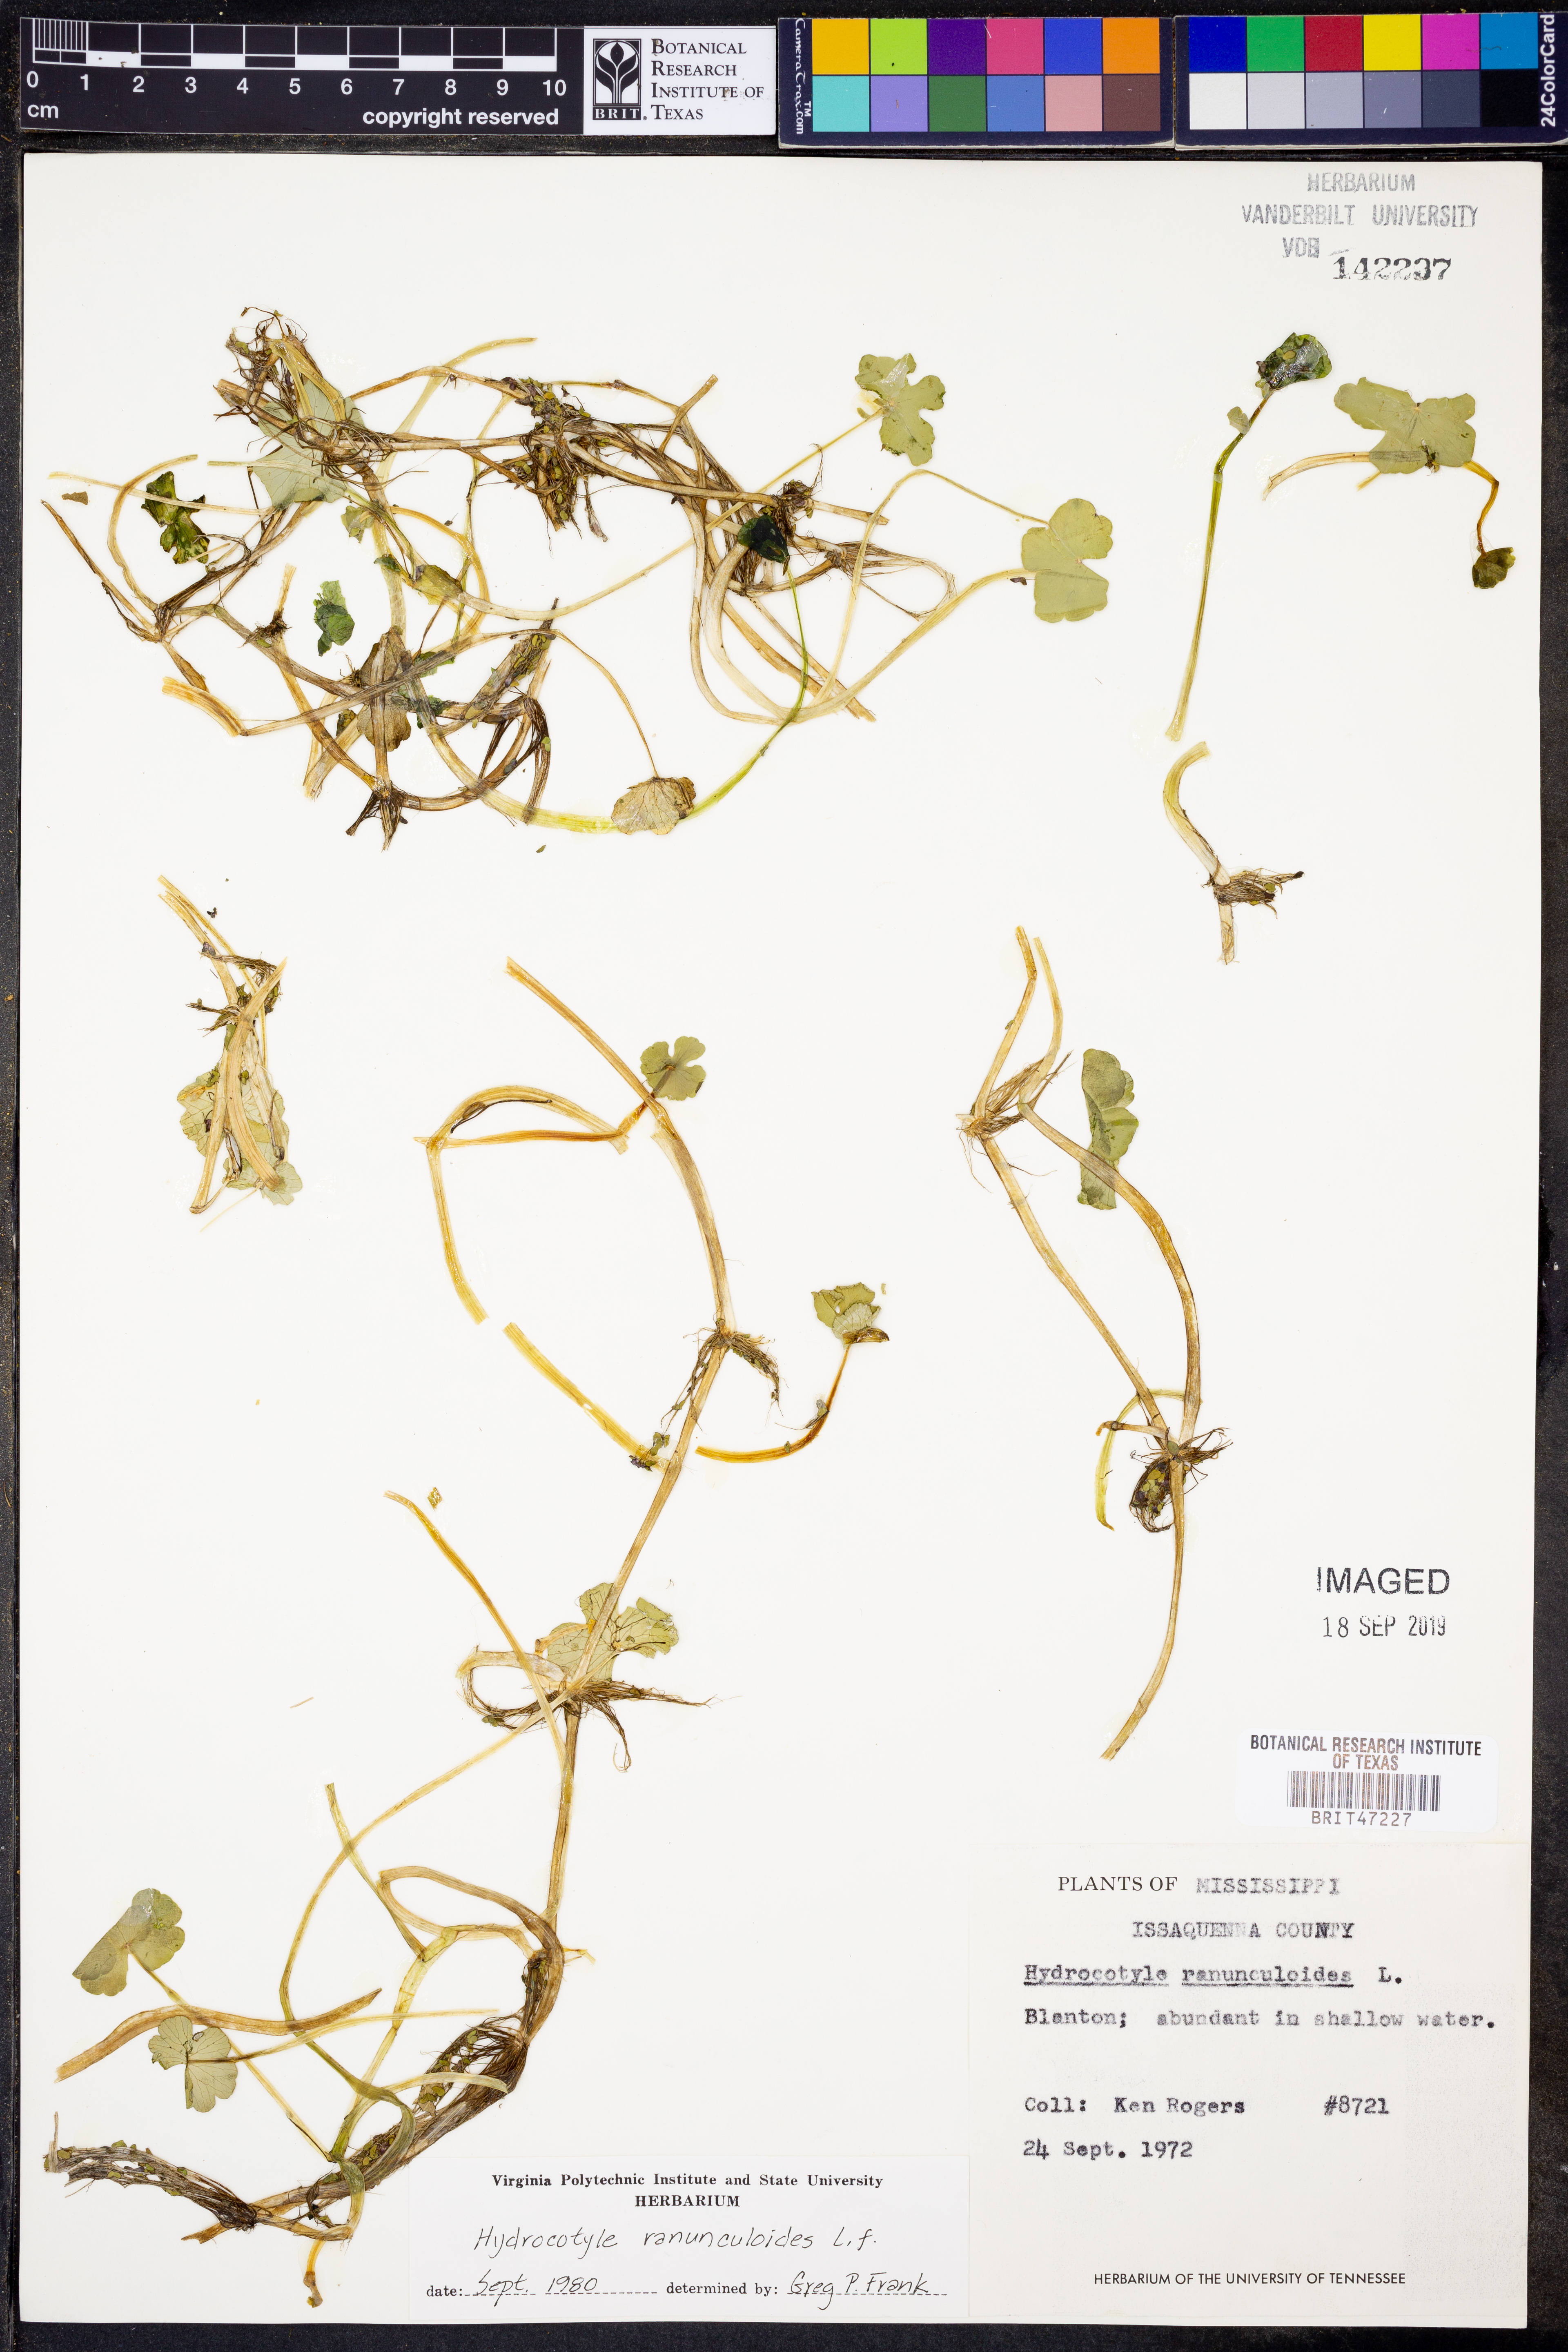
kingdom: Plantae
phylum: Tracheophyta
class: Polypodiopsida
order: Schizaeales
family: Anemiaceae
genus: Anemia
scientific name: Anemia mexicana
